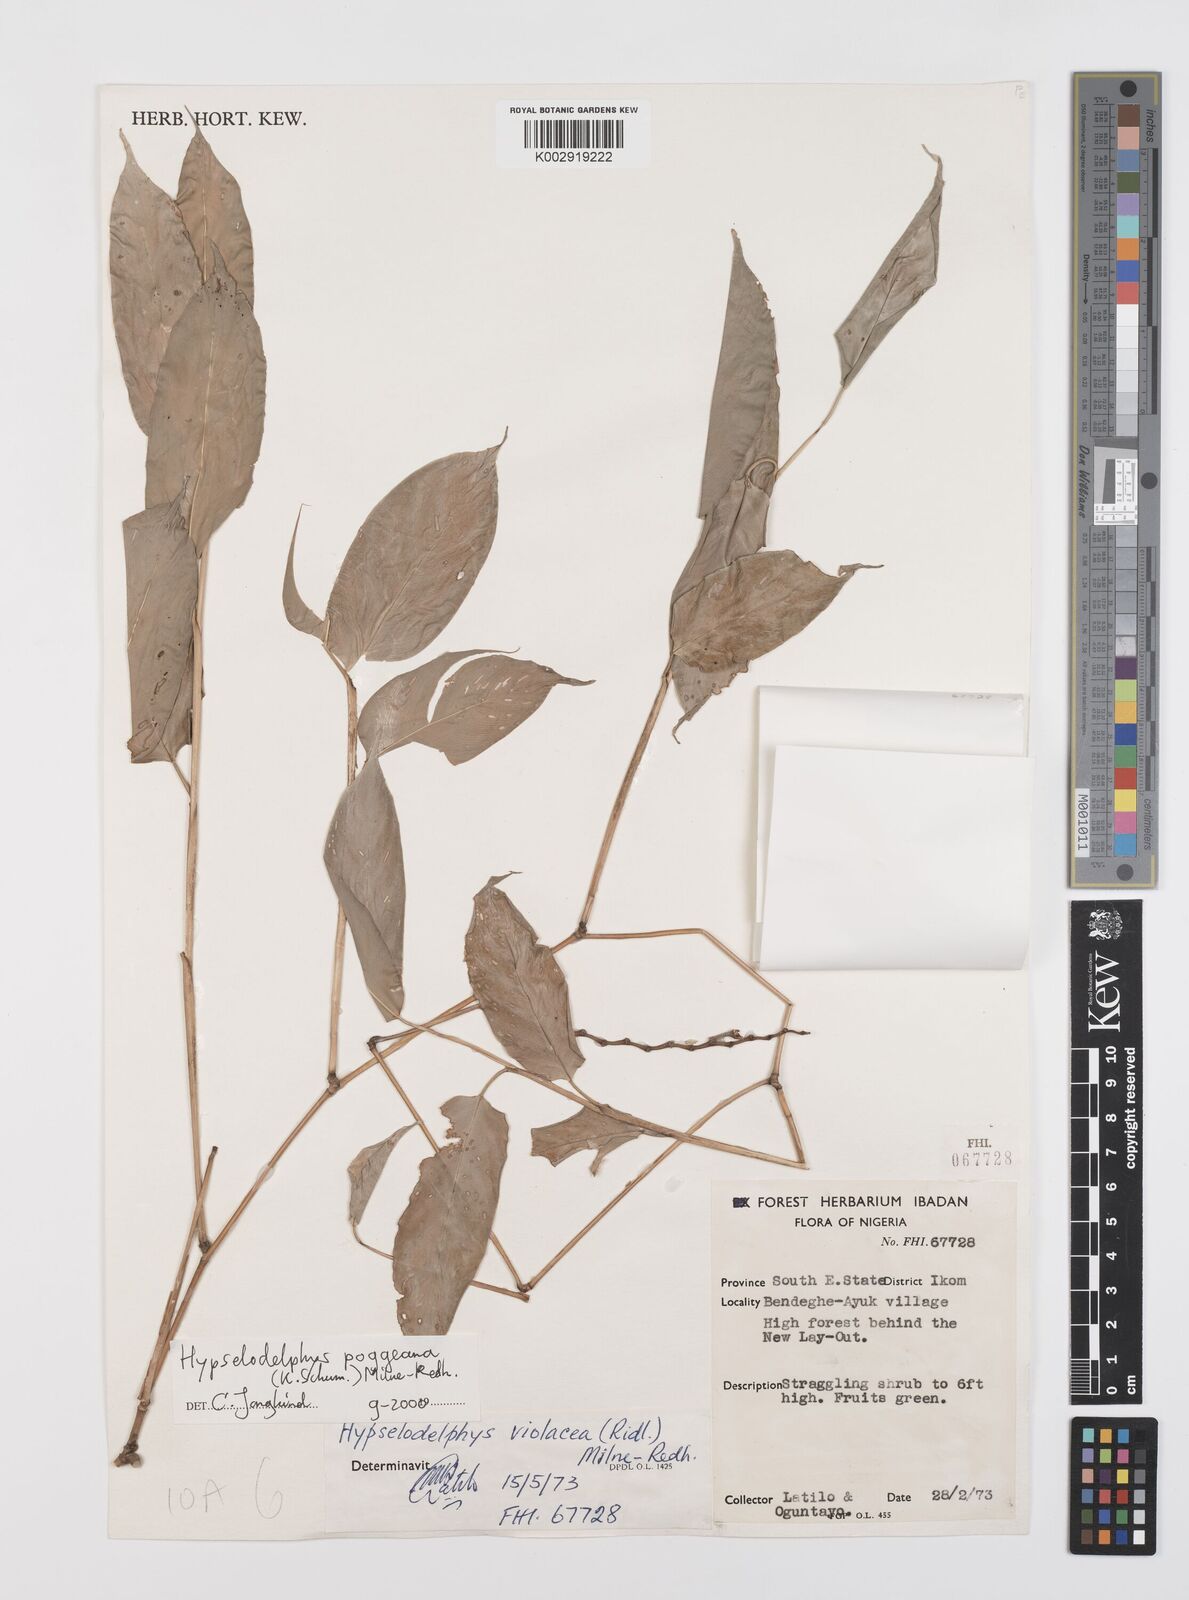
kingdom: Plantae
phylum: Tracheophyta
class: Liliopsida
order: Zingiberales
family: Marantaceae
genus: Hypselodelphys
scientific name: Hypselodelphys poggeana
